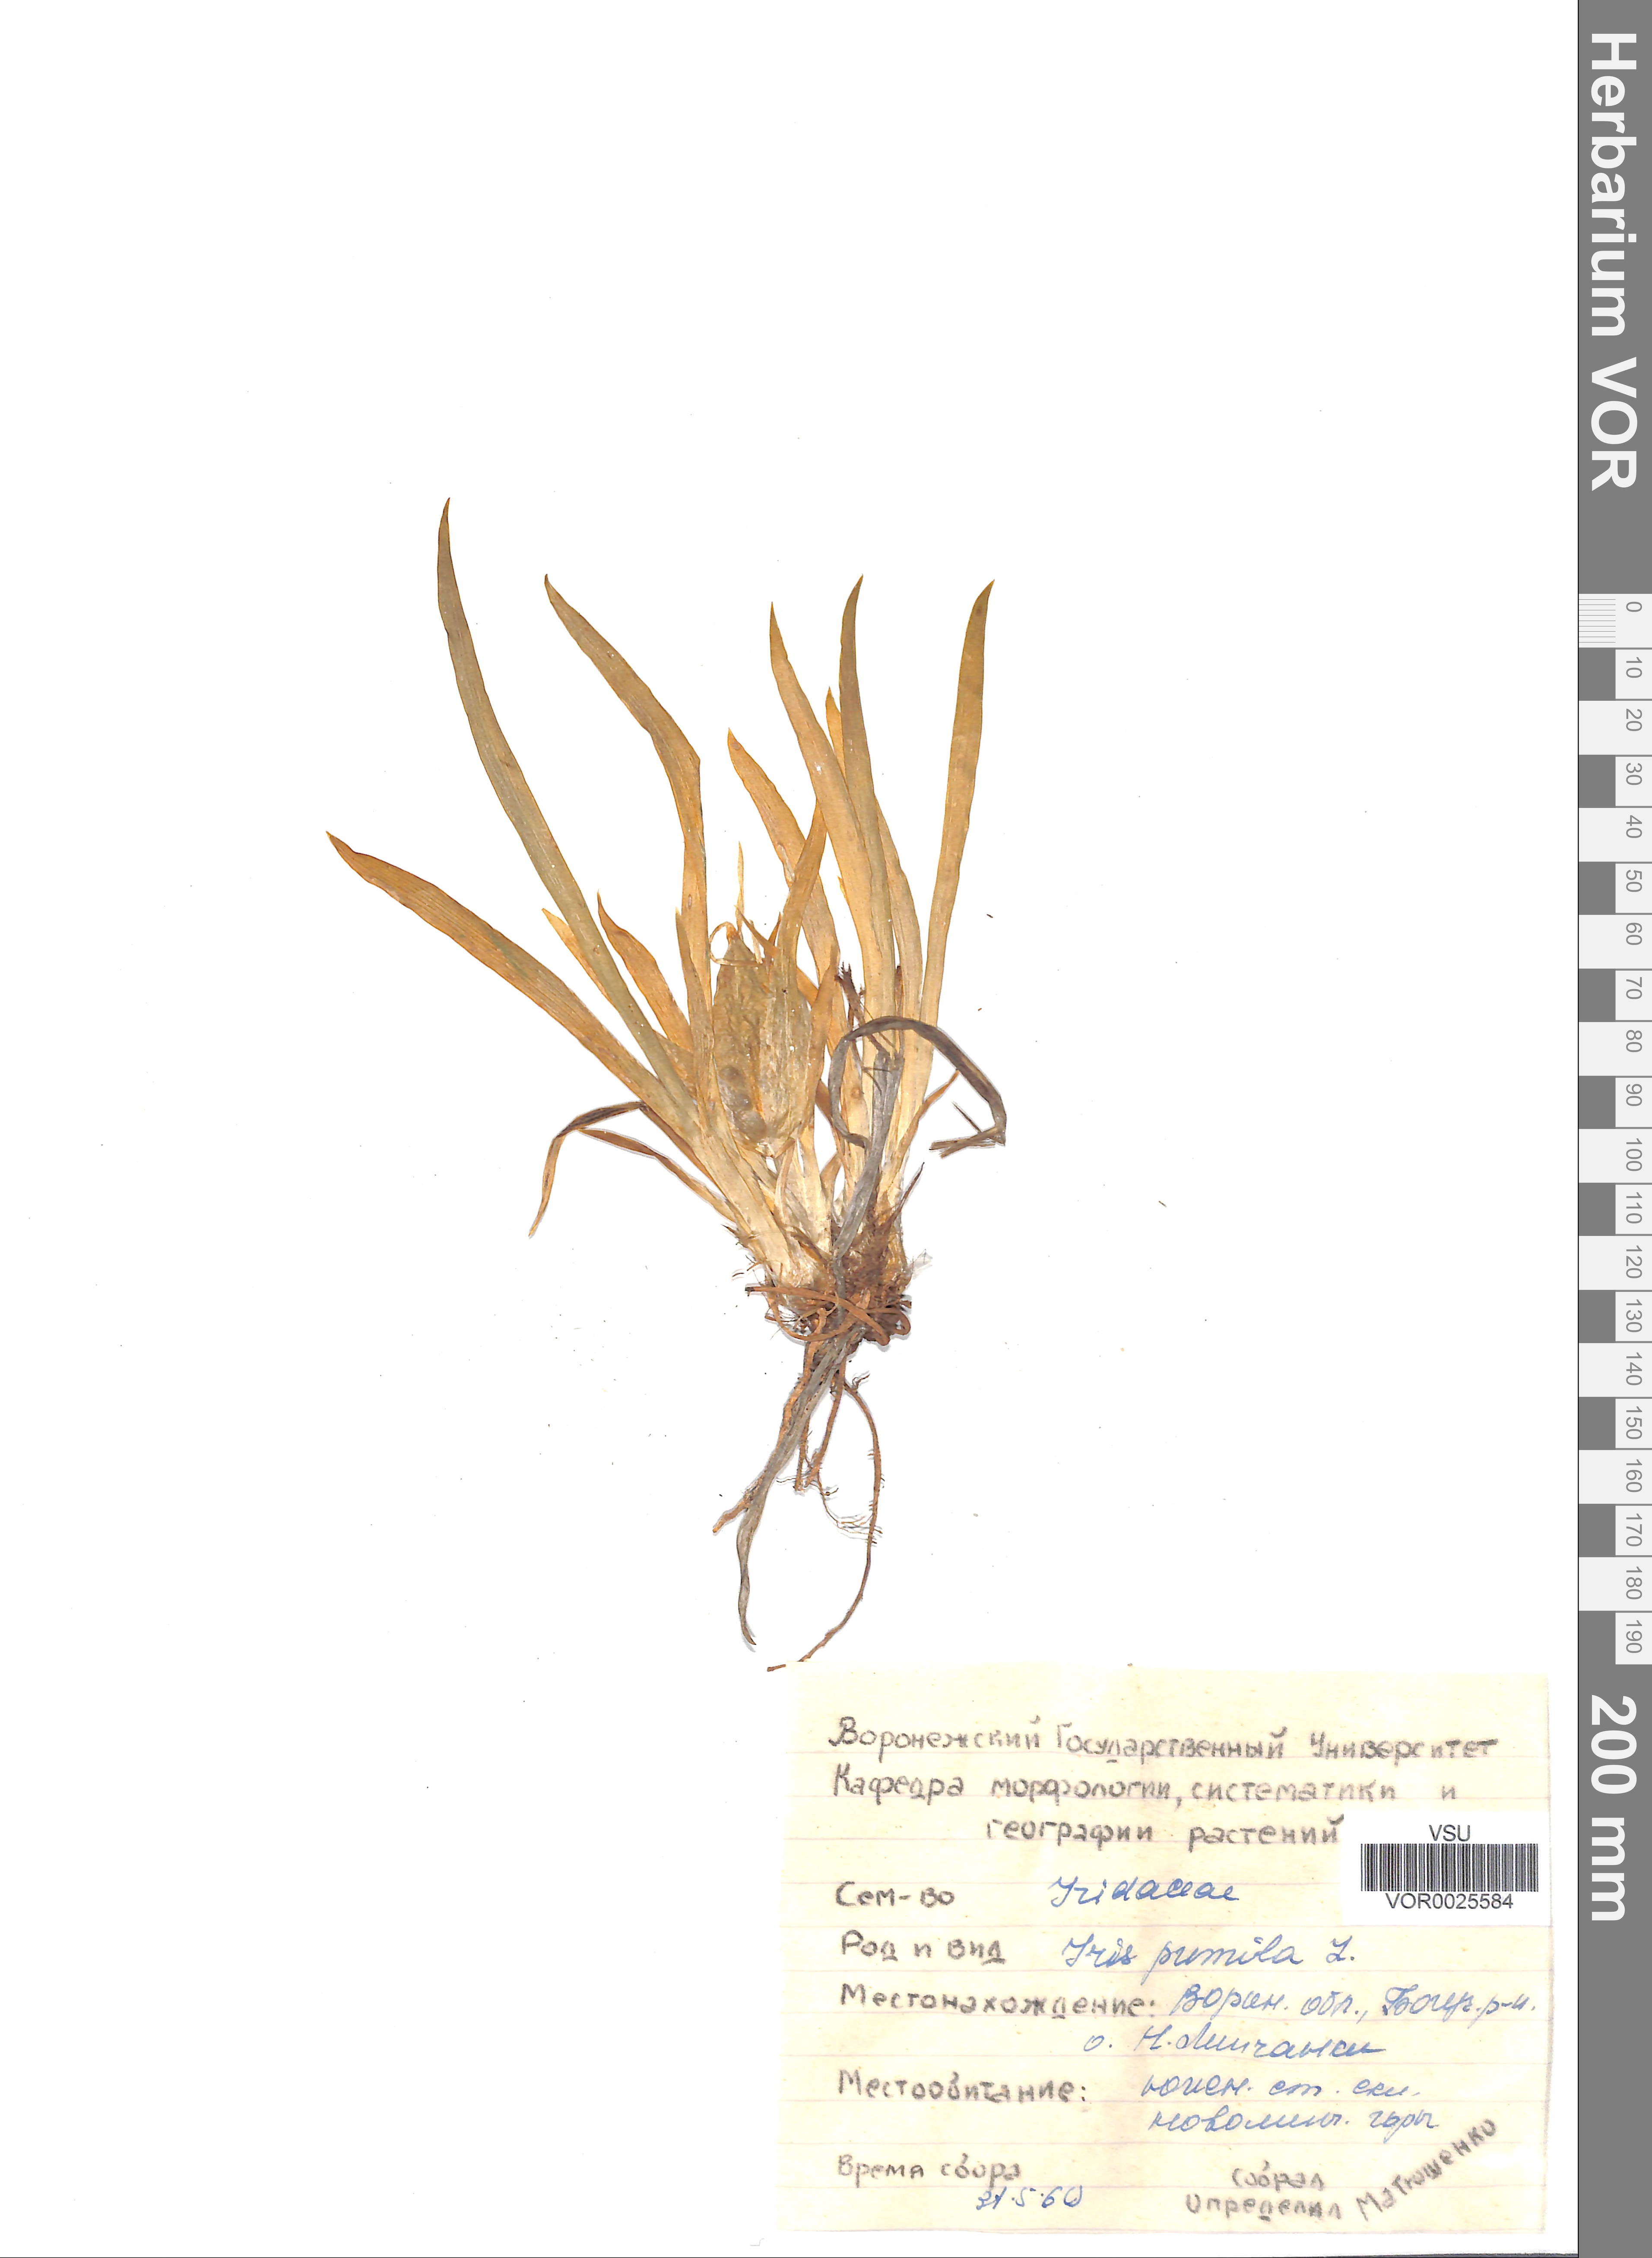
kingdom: Plantae
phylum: Tracheophyta
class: Liliopsida
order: Asparagales
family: Iridaceae
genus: Iris
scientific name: Iris pumila
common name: Dwarf iris
